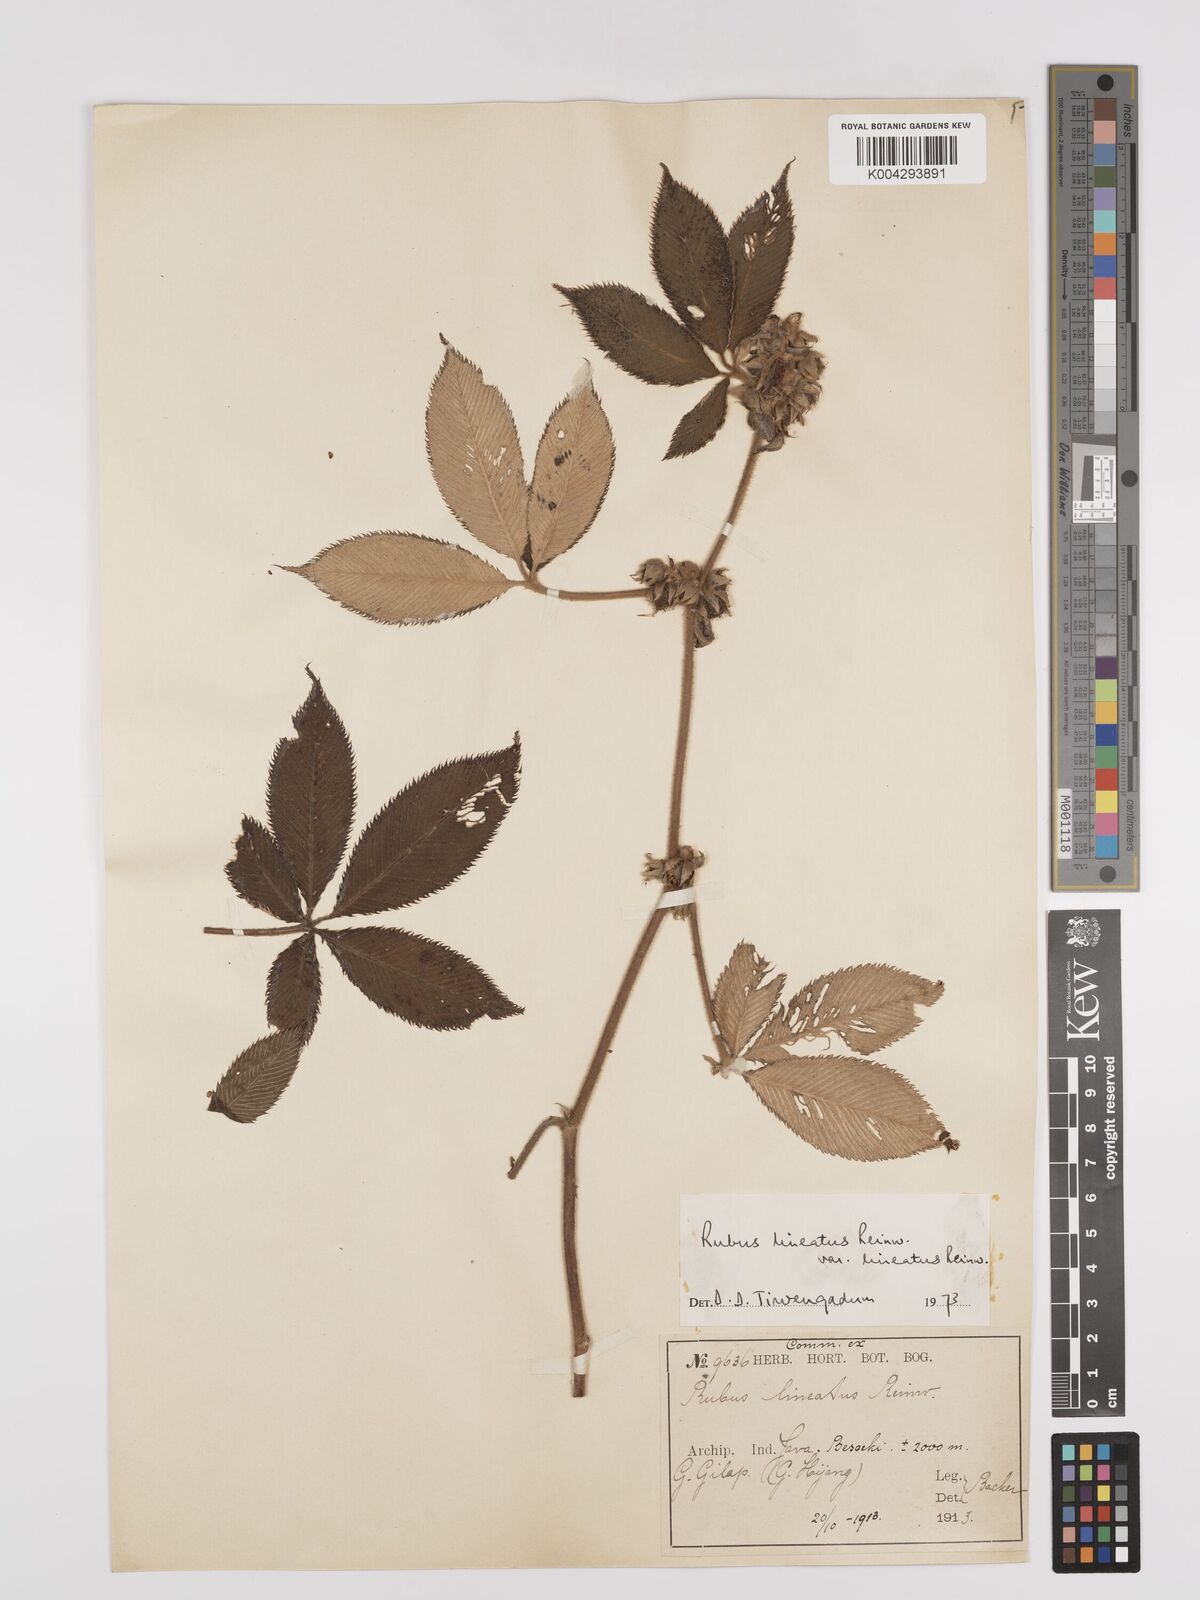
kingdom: Plantae
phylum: Tracheophyta
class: Magnoliopsida
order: Rosales
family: Rosaceae
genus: Rubus
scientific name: Rubus lineatus
